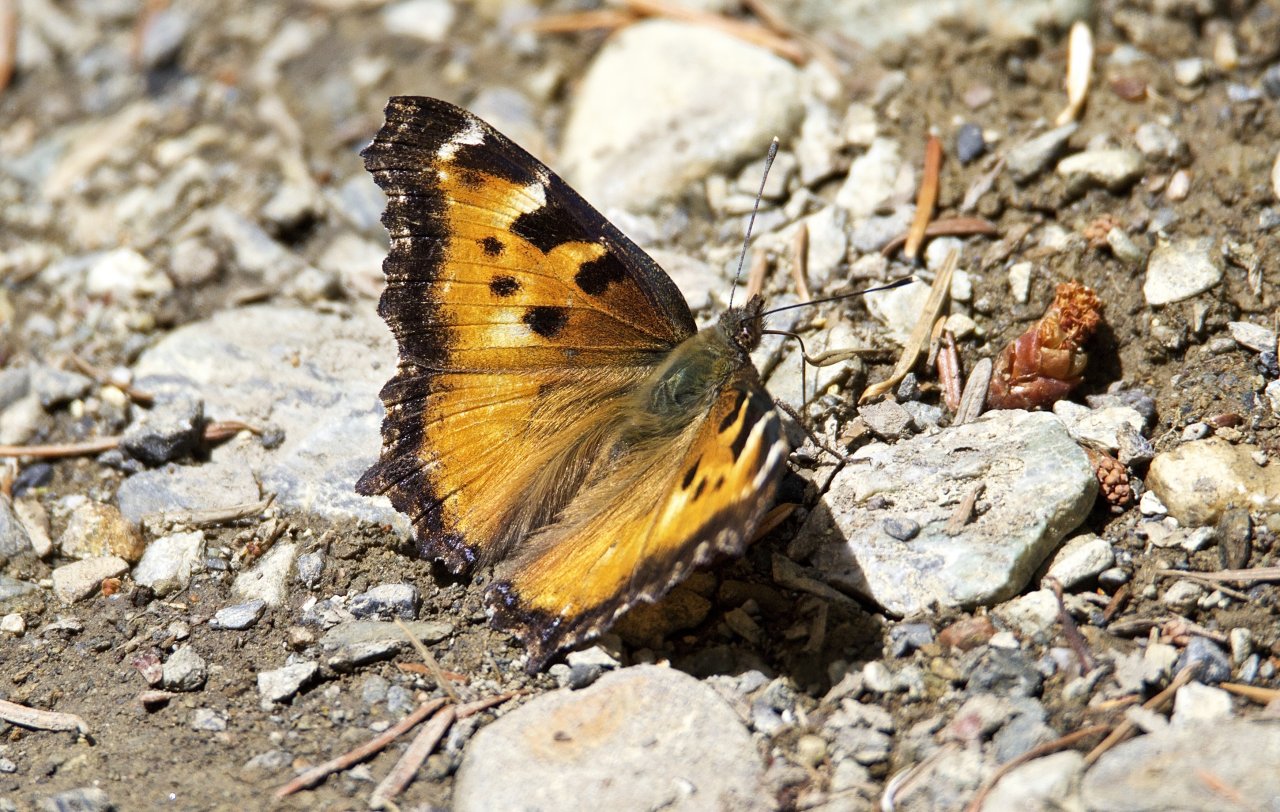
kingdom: Animalia
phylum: Arthropoda
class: Insecta
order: Lepidoptera
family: Nymphalidae
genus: Nymphalis
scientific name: Nymphalis californica
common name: California Tortoiseshell
